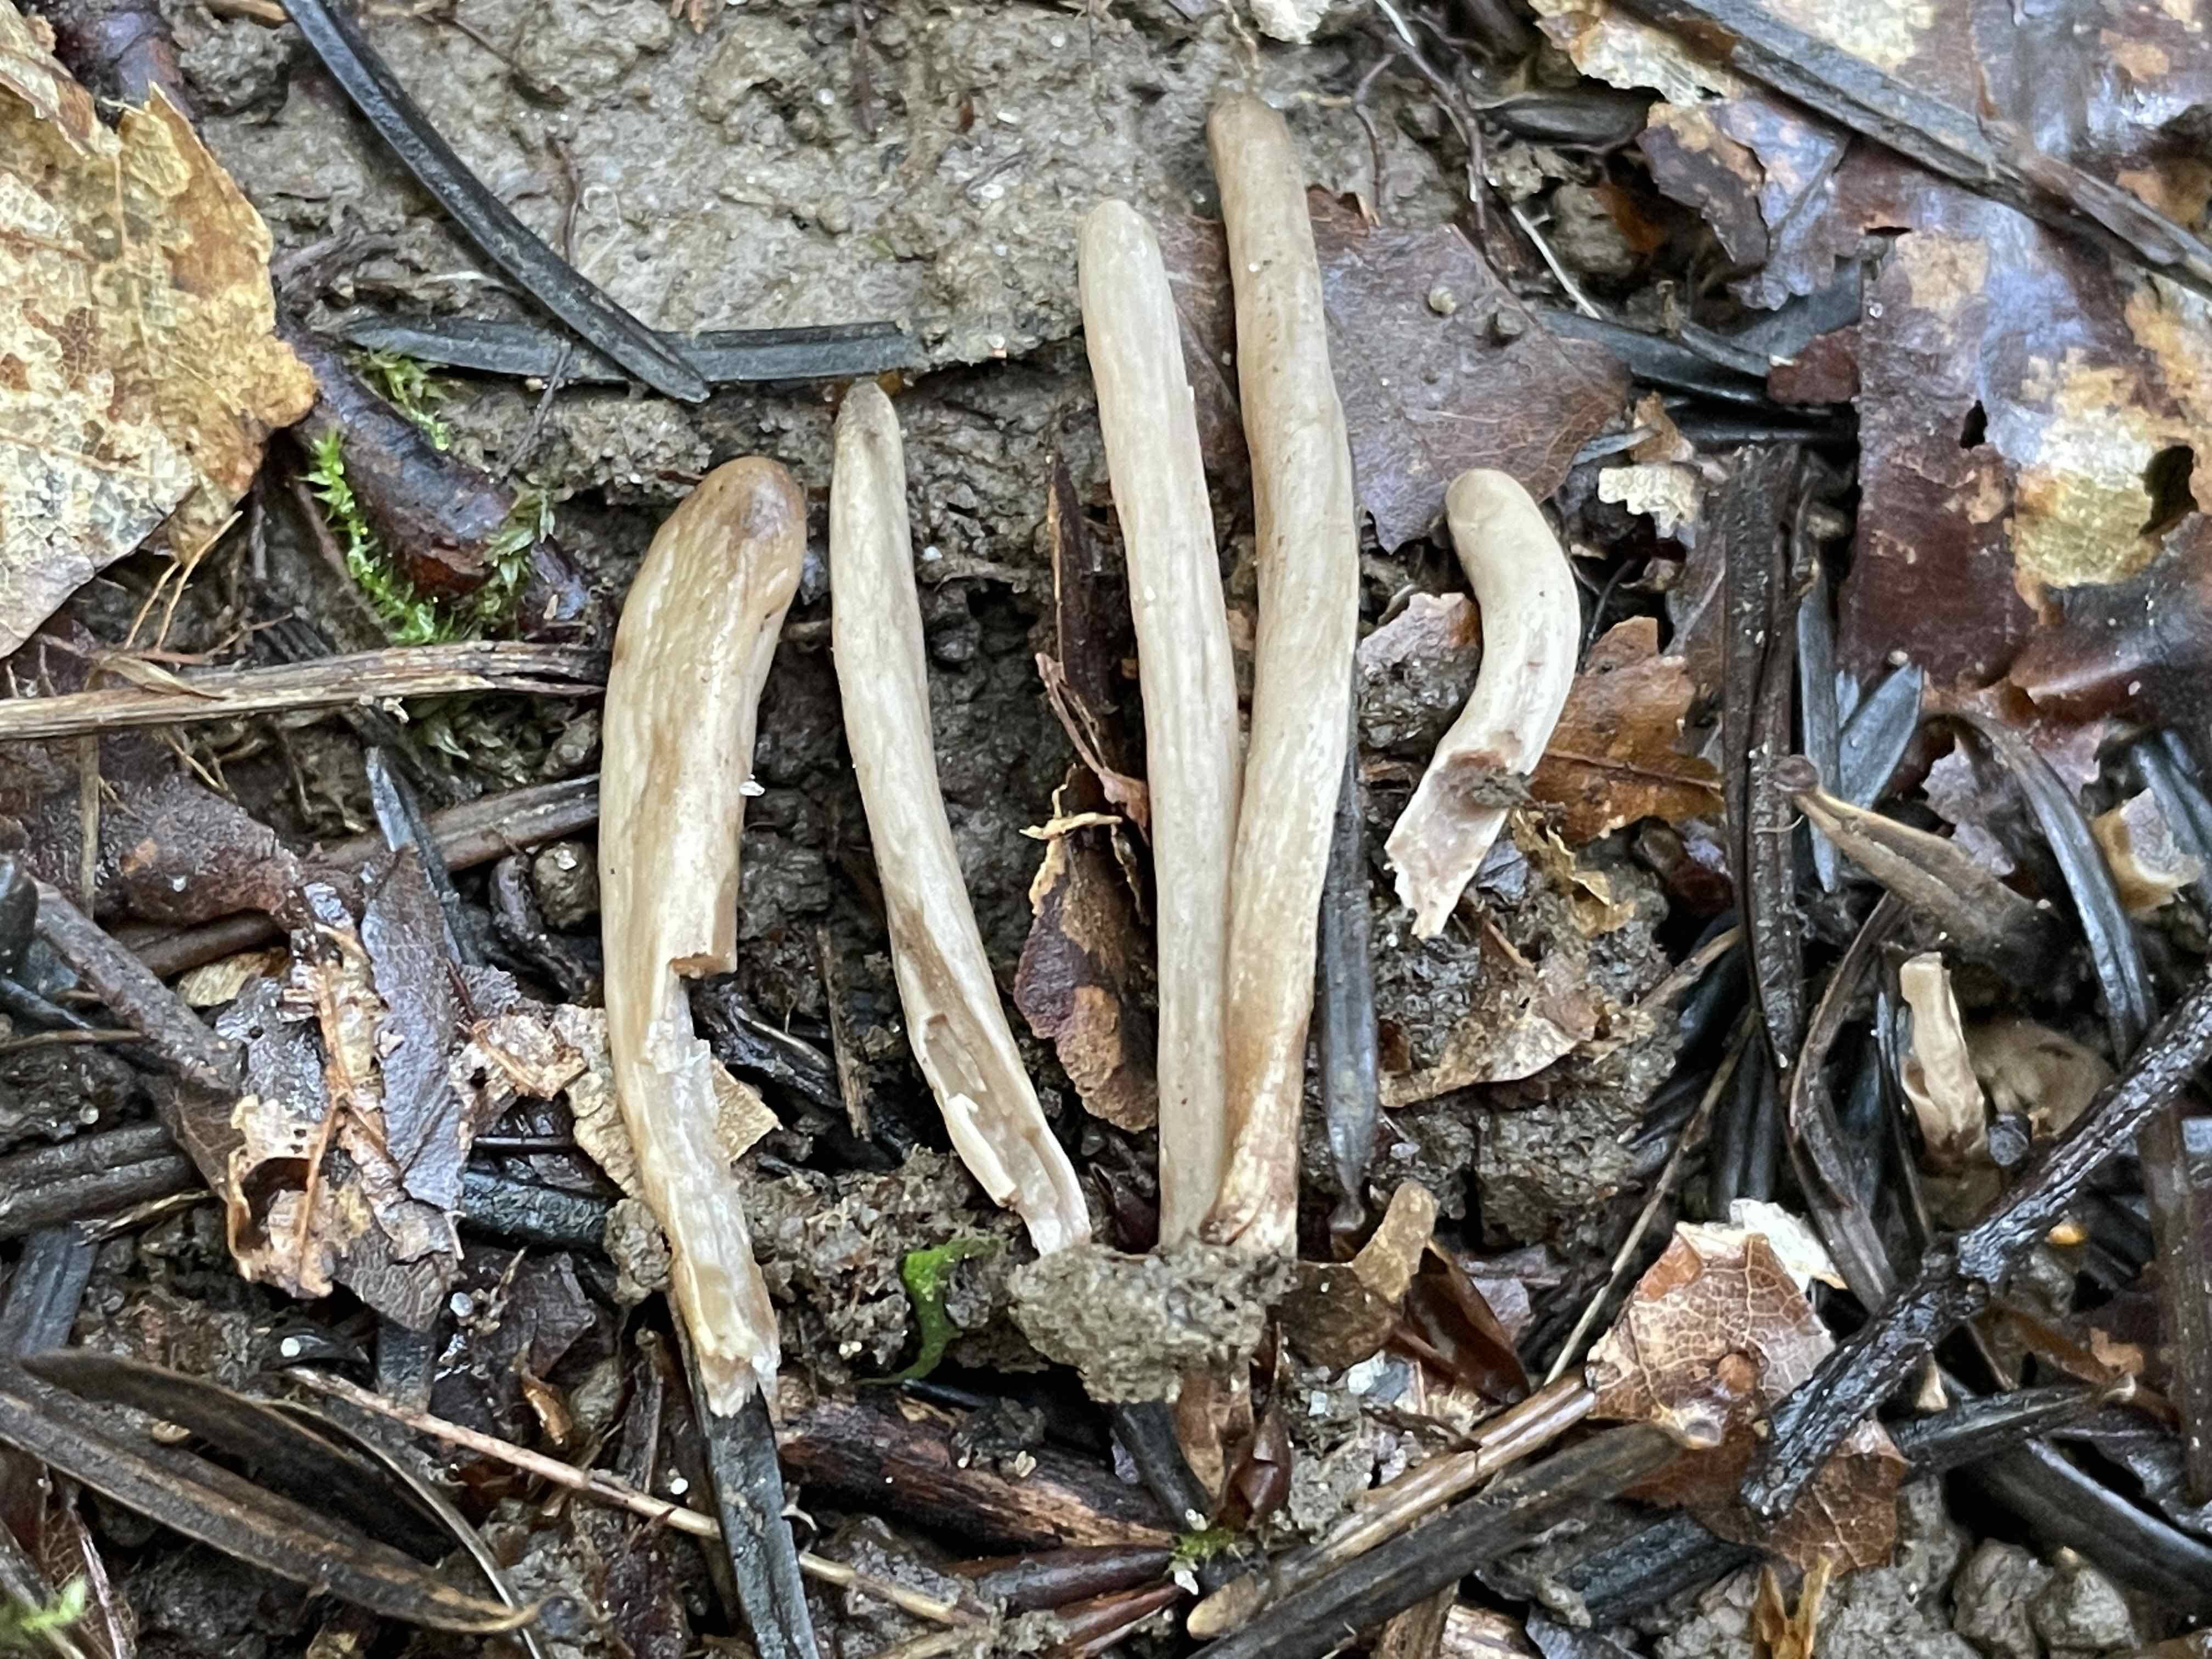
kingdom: Fungi
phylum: Basidiomycota
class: Agaricomycetes
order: Agaricales
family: Clavariaceae
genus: Clavaria
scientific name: Clavaria
